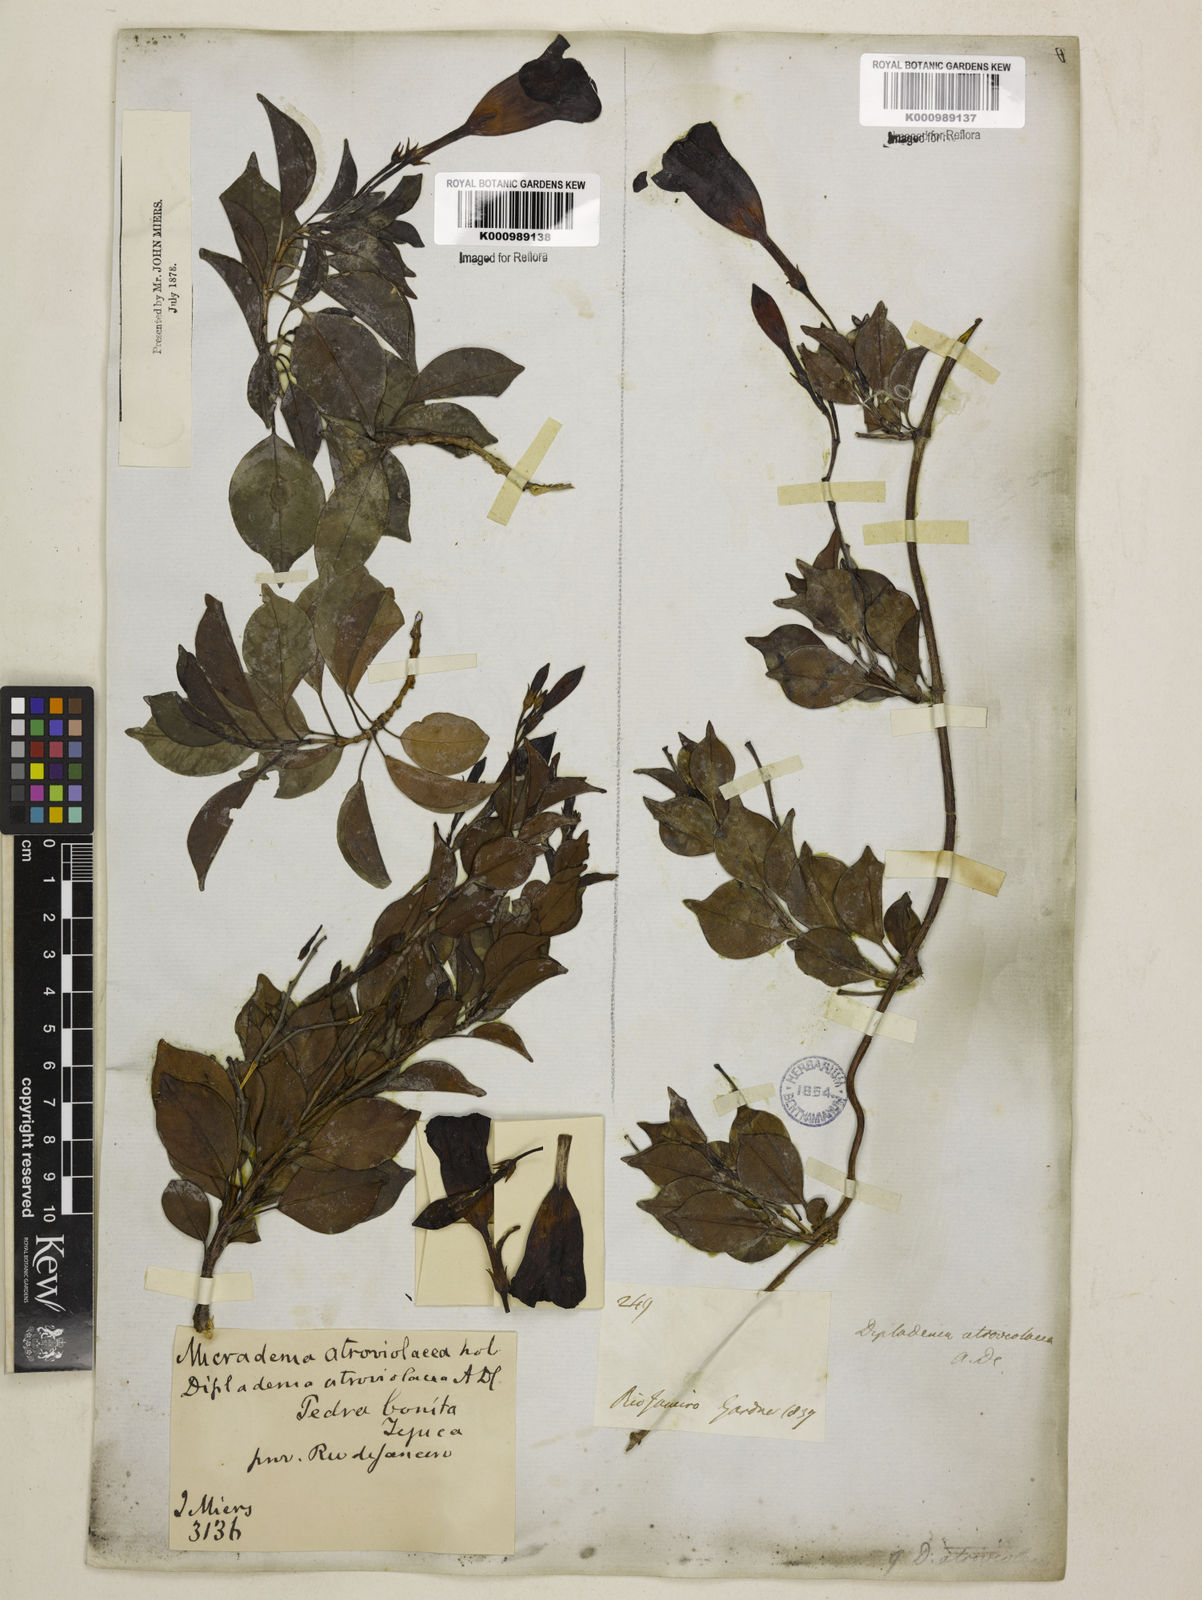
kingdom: Plantae
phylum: Tracheophyta
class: Magnoliopsida
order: Gentianales
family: Apocynaceae
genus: Mandevilla
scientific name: Mandevilla atroviolacea
